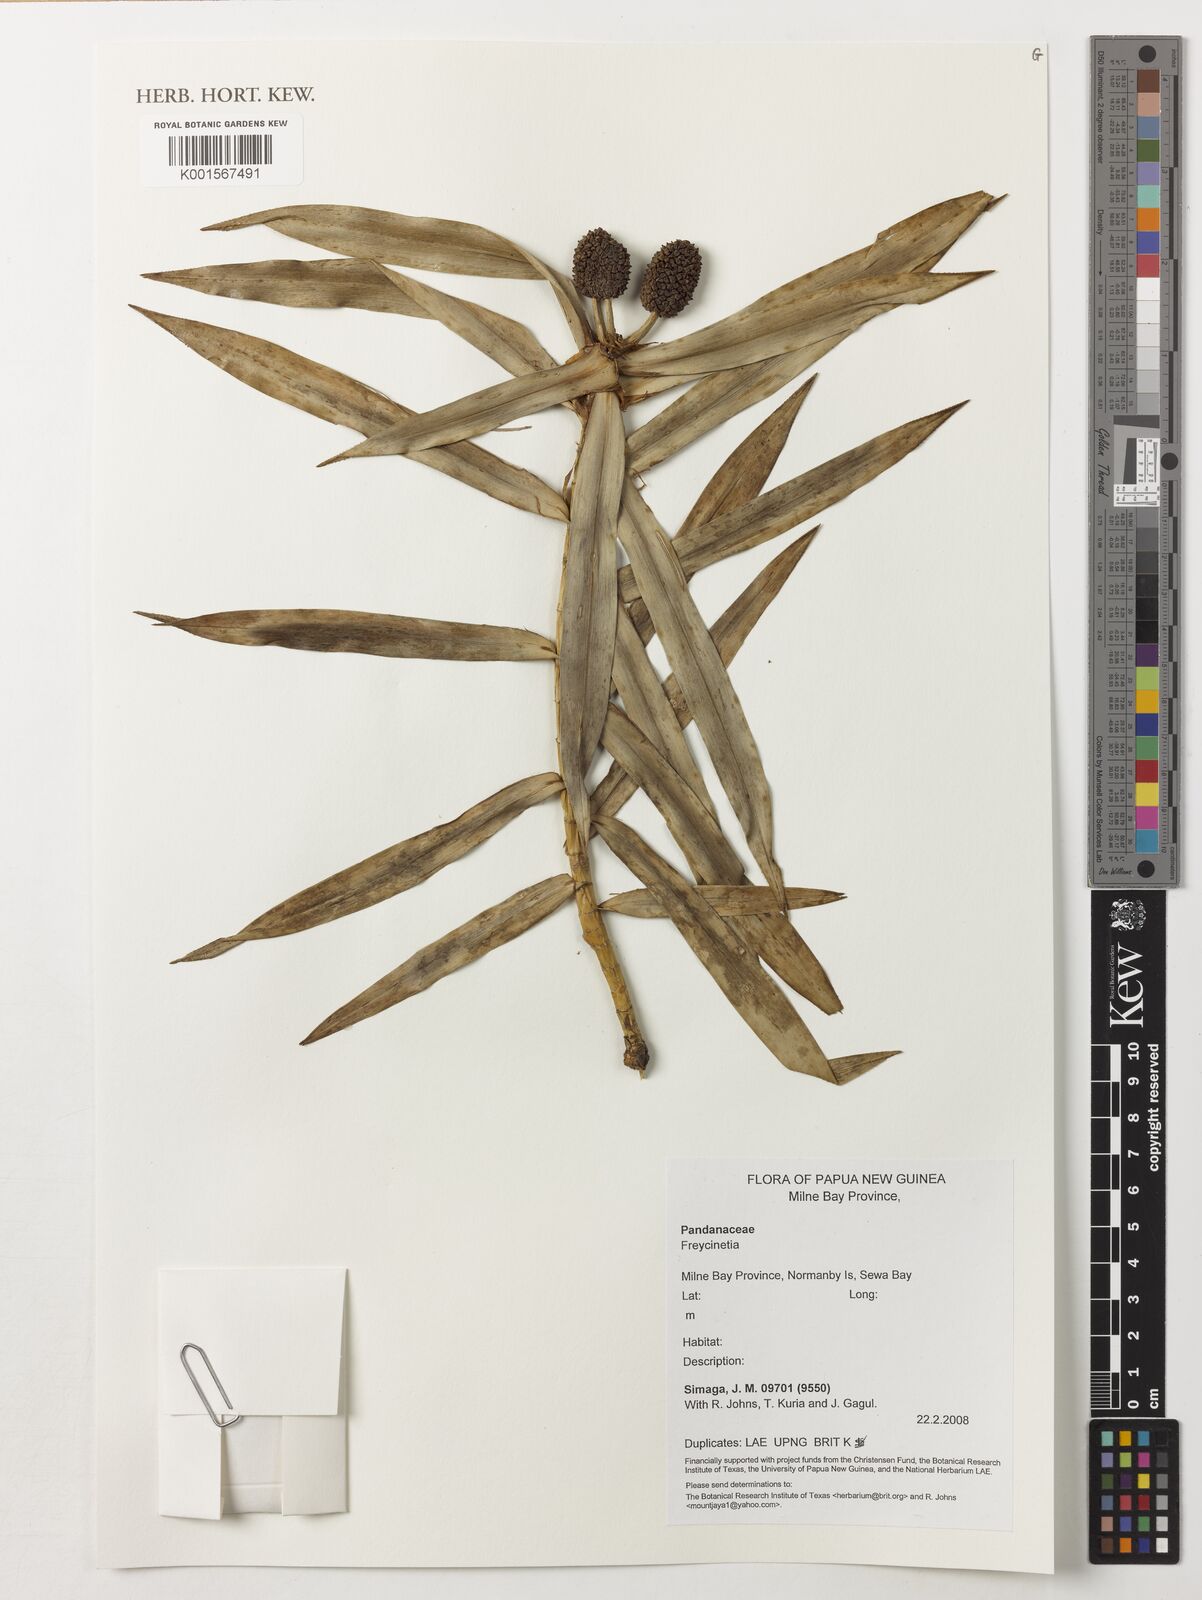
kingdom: Plantae
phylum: Tracheophyta
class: Liliopsida
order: Pandanales
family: Pandanaceae
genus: Freycinetia
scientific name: Freycinetia
